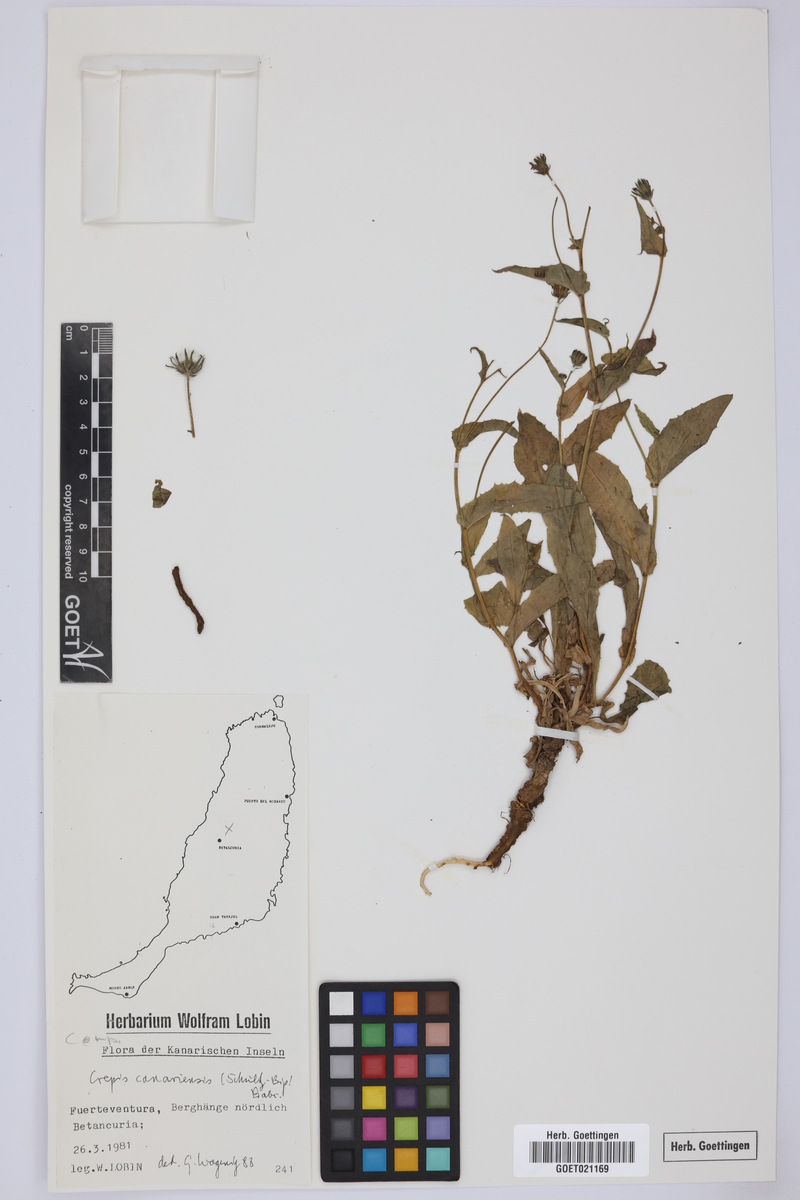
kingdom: Plantae
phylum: Tracheophyta
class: Magnoliopsida
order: Asterales
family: Asteraceae
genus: Crepis
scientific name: Crepis canariensis
